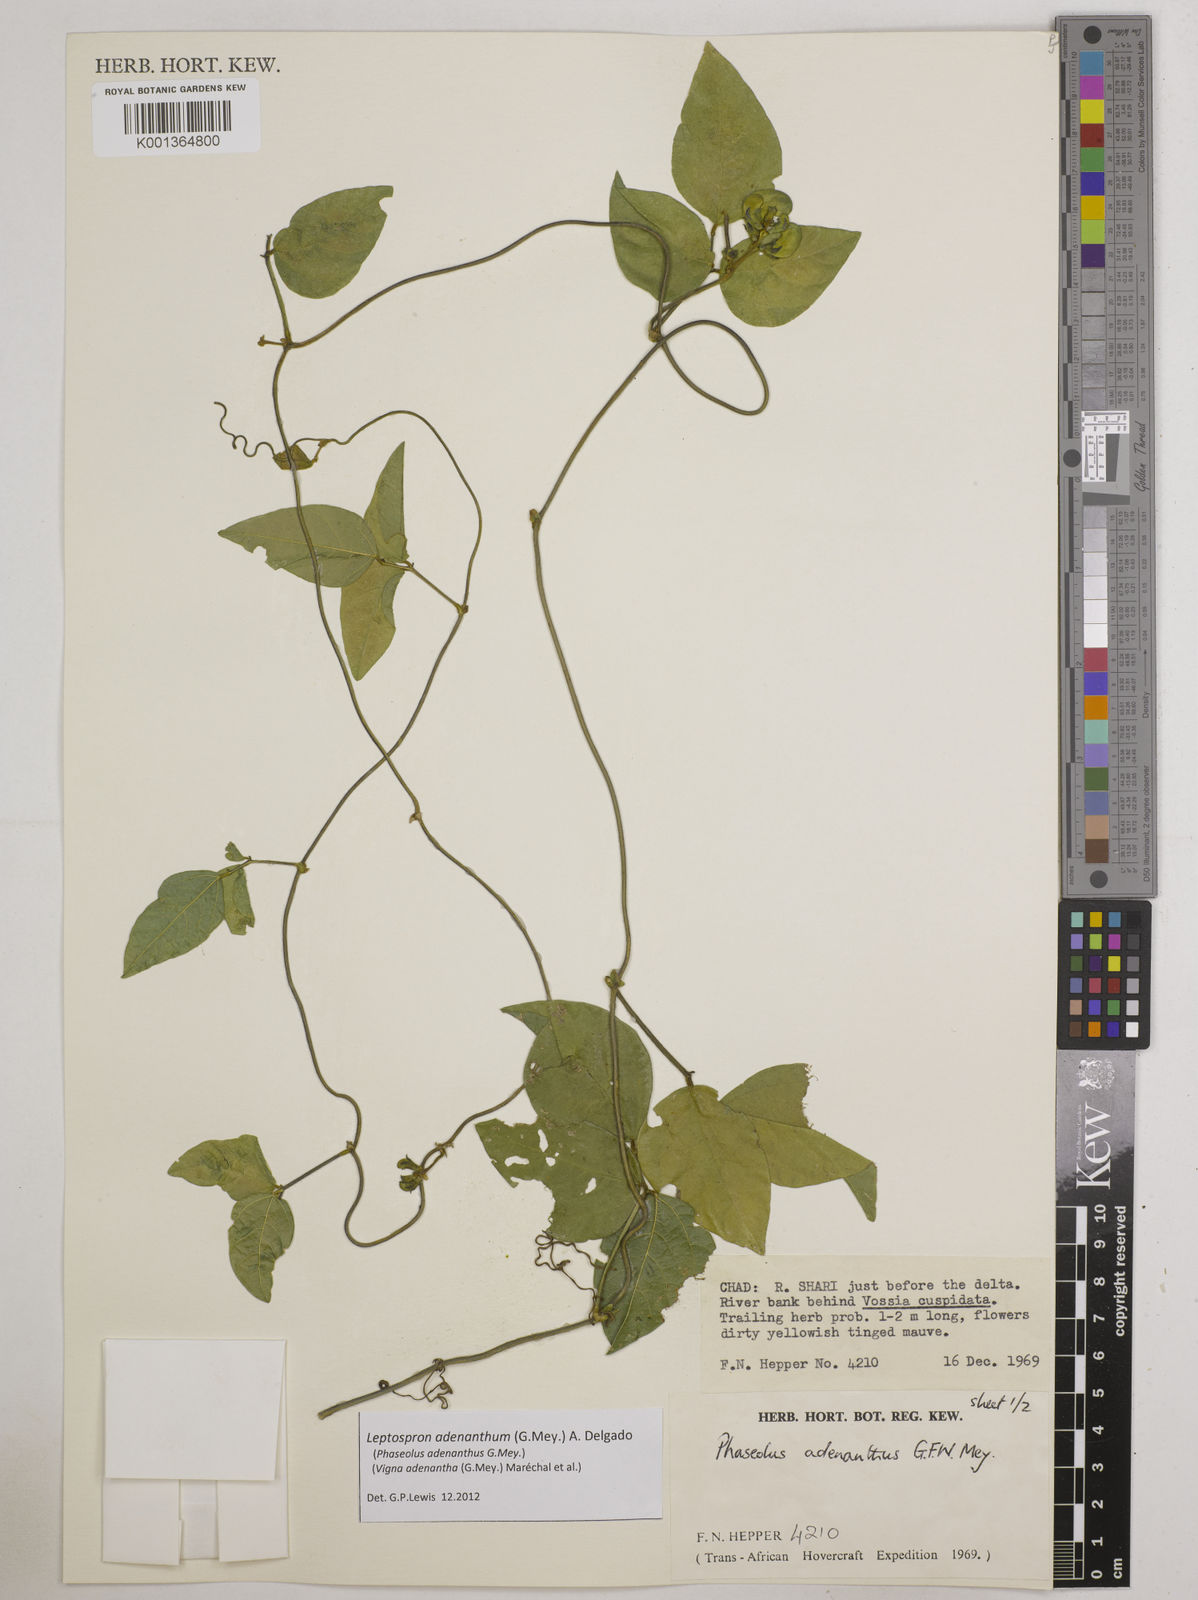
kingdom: Plantae
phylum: Tracheophyta
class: Magnoliopsida
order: Fabales
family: Fabaceae
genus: Leptospron
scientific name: Leptospron adenanthum
